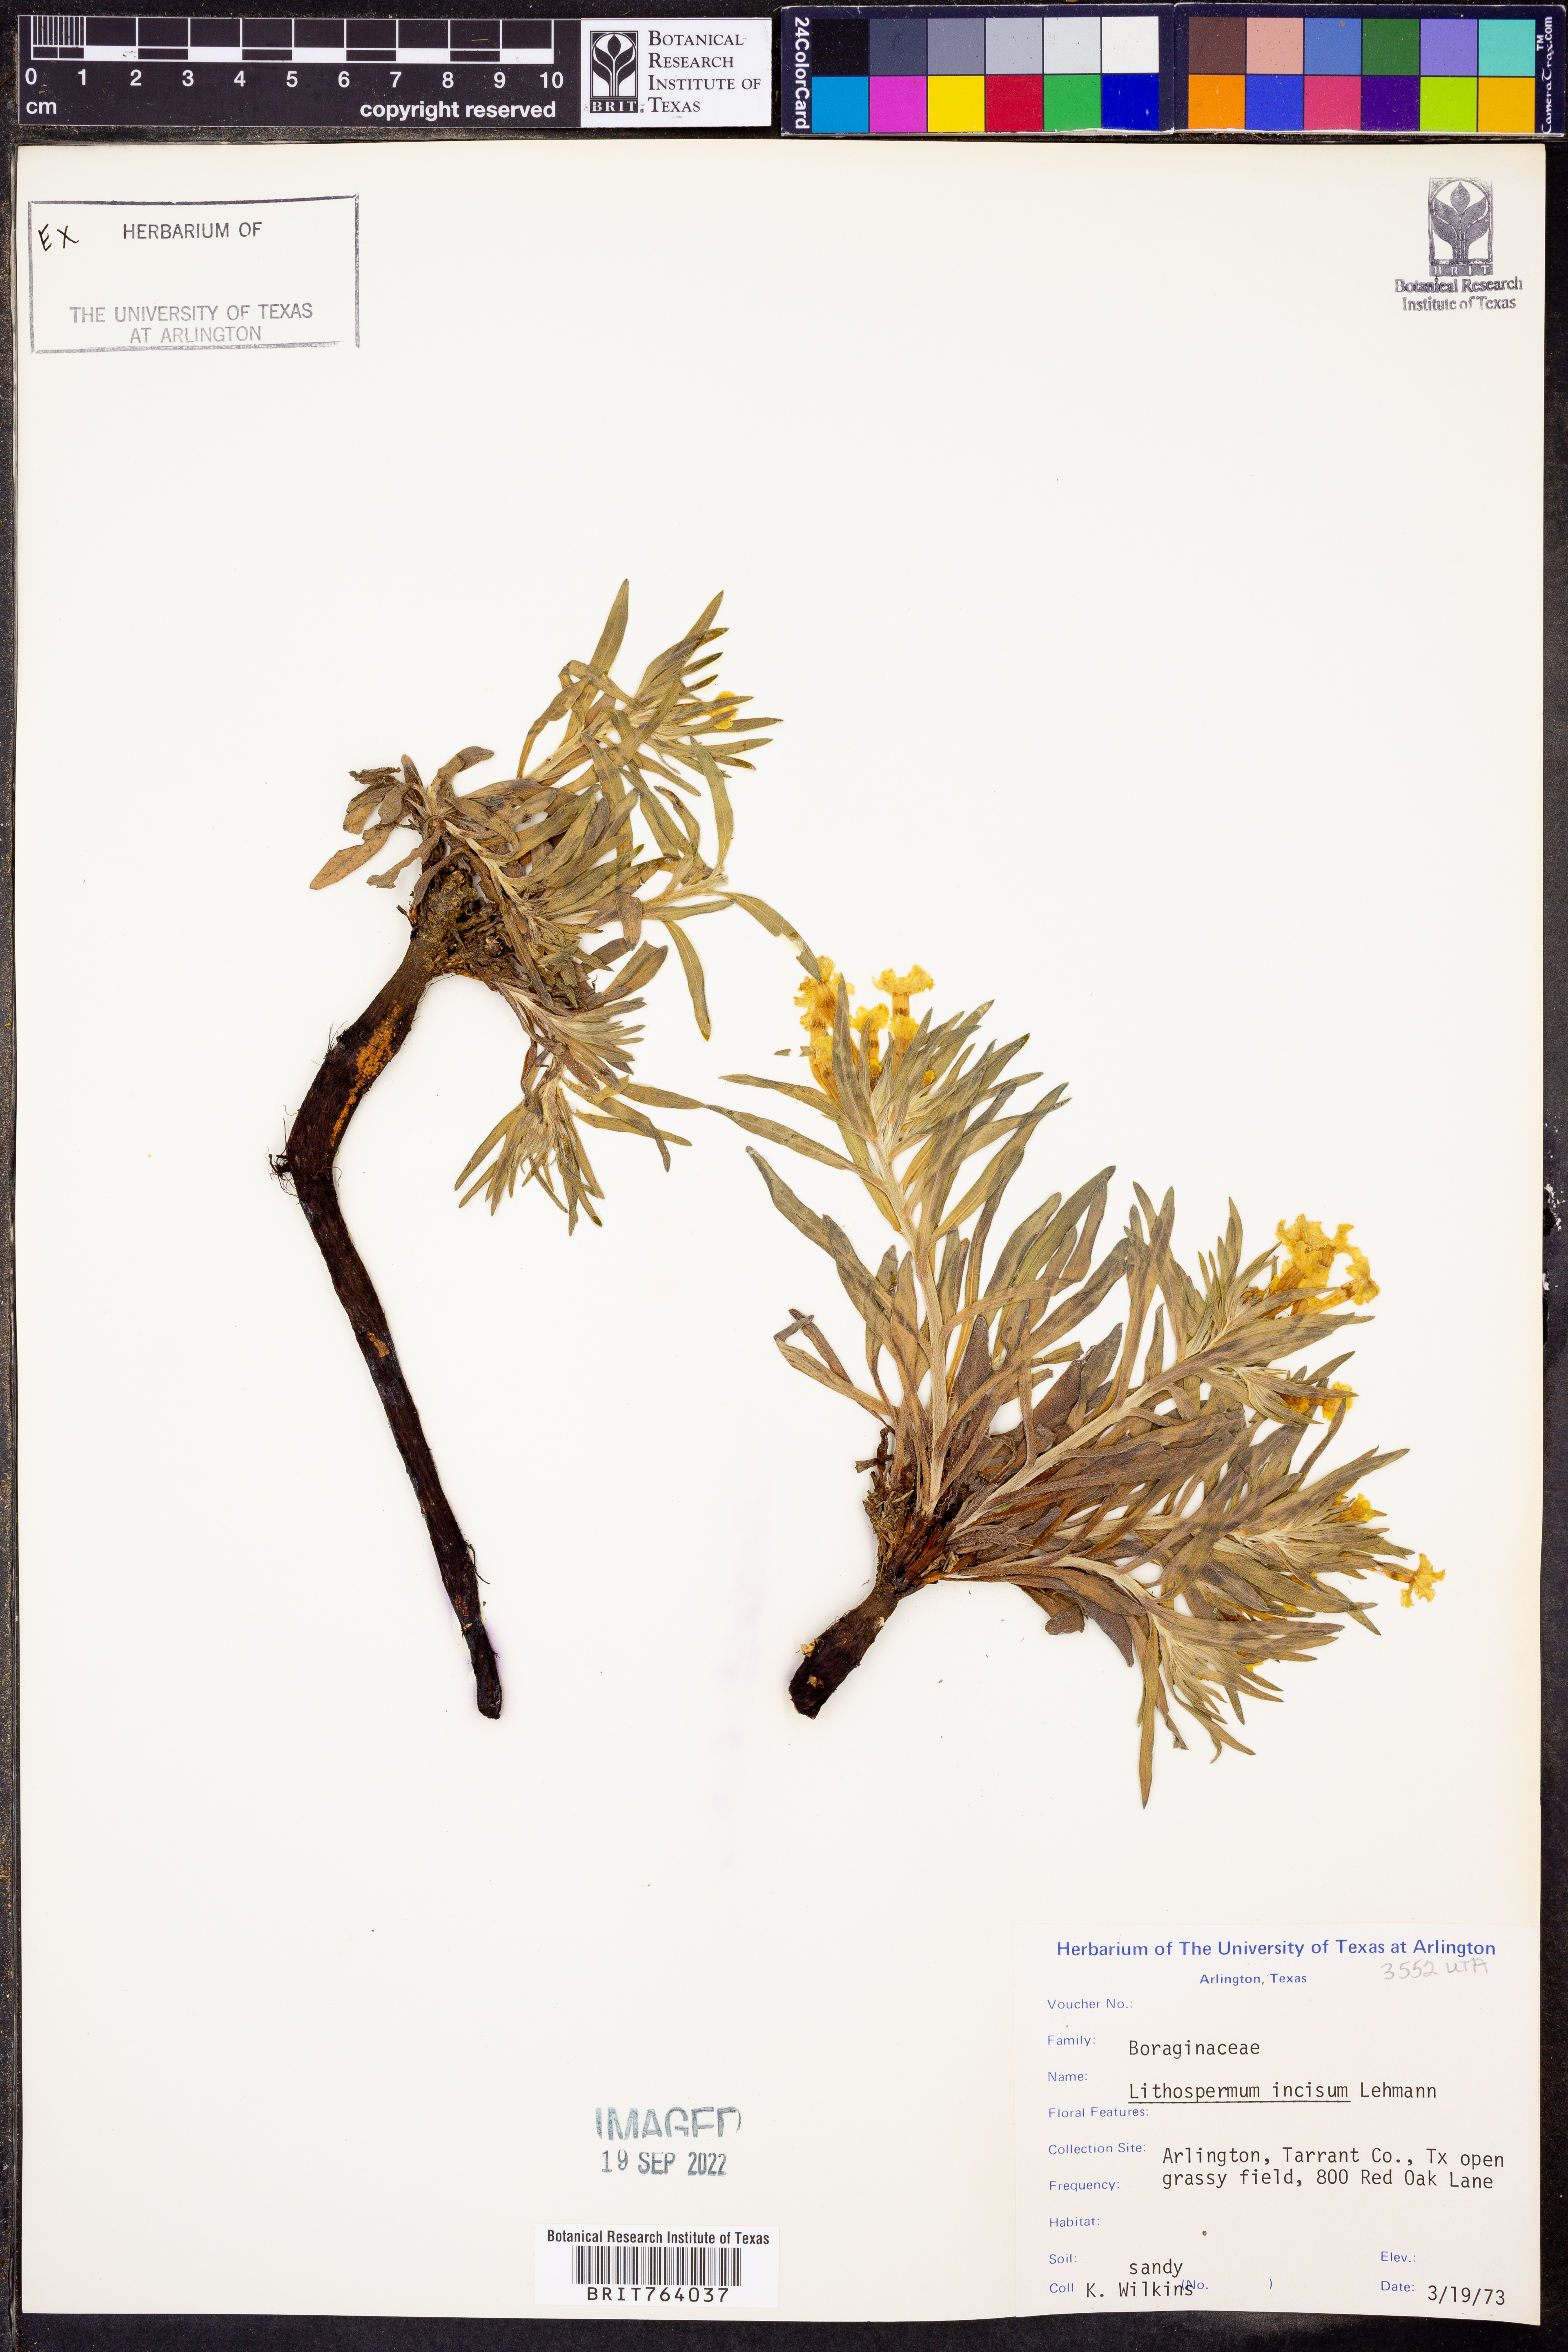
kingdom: Plantae
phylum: Tracheophyta
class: Magnoliopsida
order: Boraginales
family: Boraginaceae
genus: Lithospermum
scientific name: Lithospermum incisum
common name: Fringed gromwell
